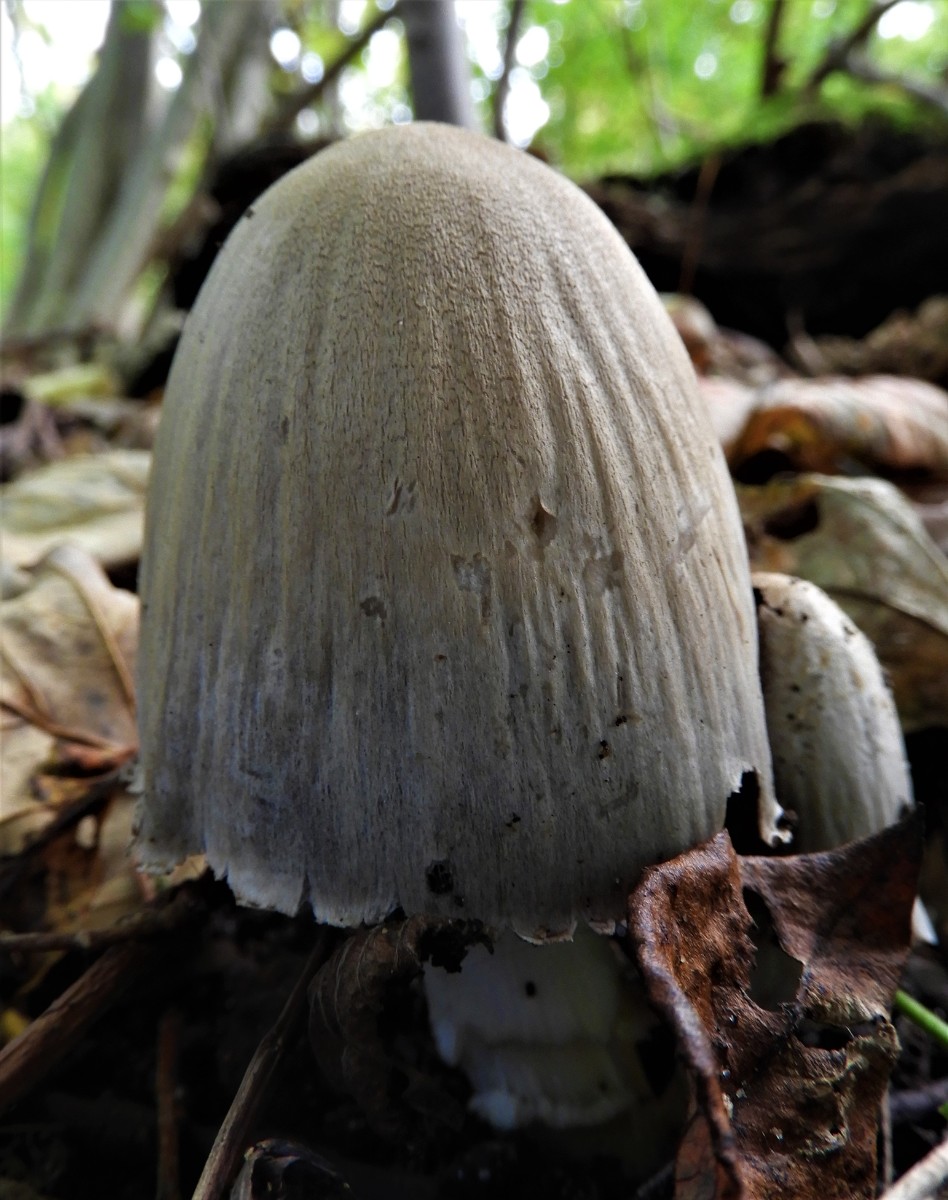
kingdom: Fungi
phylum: Basidiomycota
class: Agaricomycetes
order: Agaricales
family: Psathyrellaceae
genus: Coprinopsis
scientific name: Coprinopsis atramentaria
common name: almindelig blækhat
